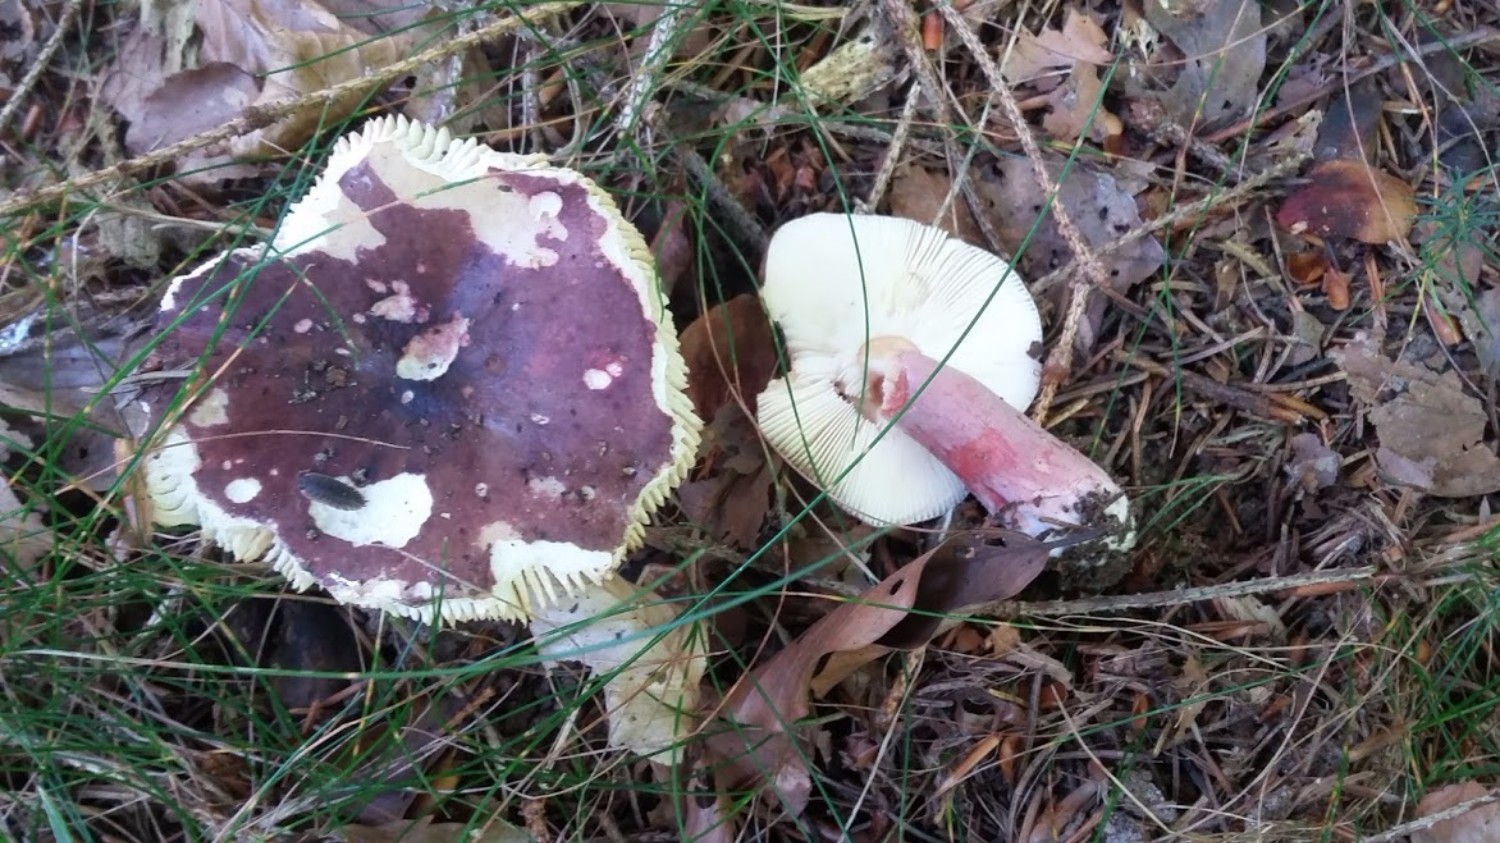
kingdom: Fungi
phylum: Basidiomycota
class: Agaricomycetes
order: Russulales
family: Russulaceae
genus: Russula
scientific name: Russula queletii
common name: Quélets skørhat
